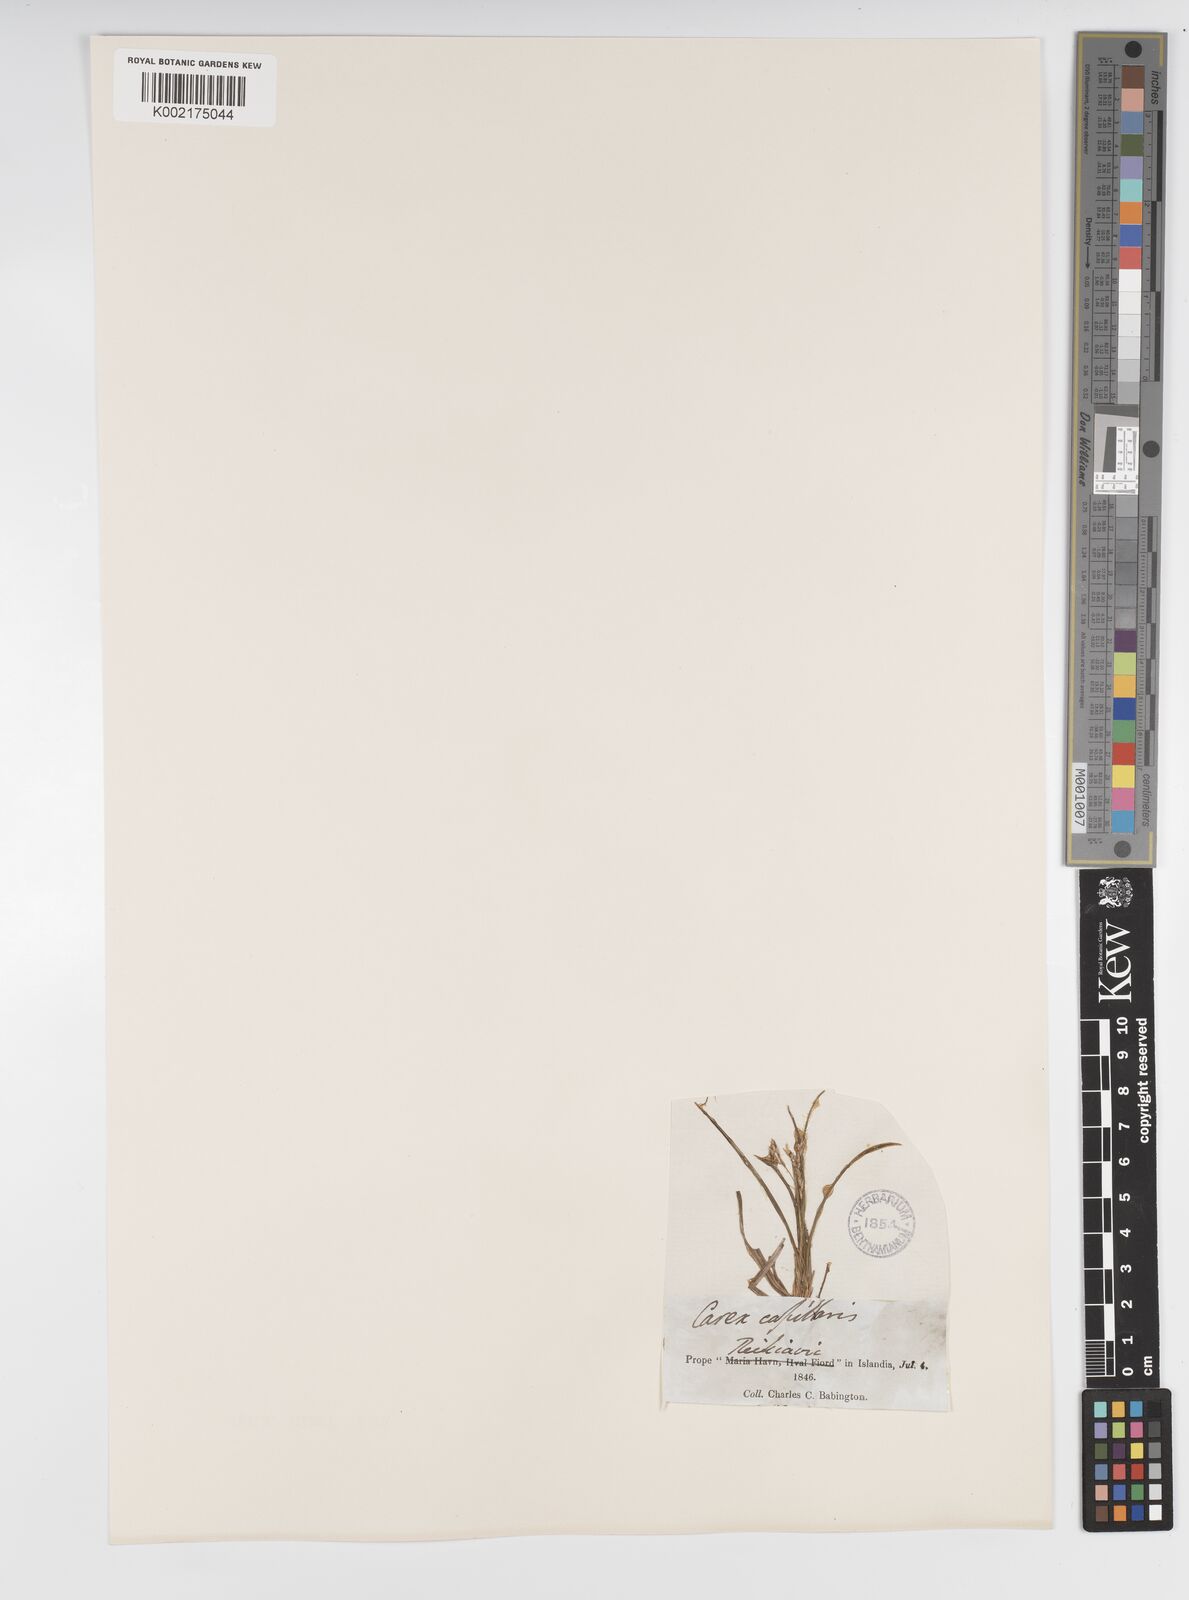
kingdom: Plantae
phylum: Tracheophyta
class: Liliopsida
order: Poales
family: Cyperaceae
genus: Carex
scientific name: Carex capillaris
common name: Hair sedge
